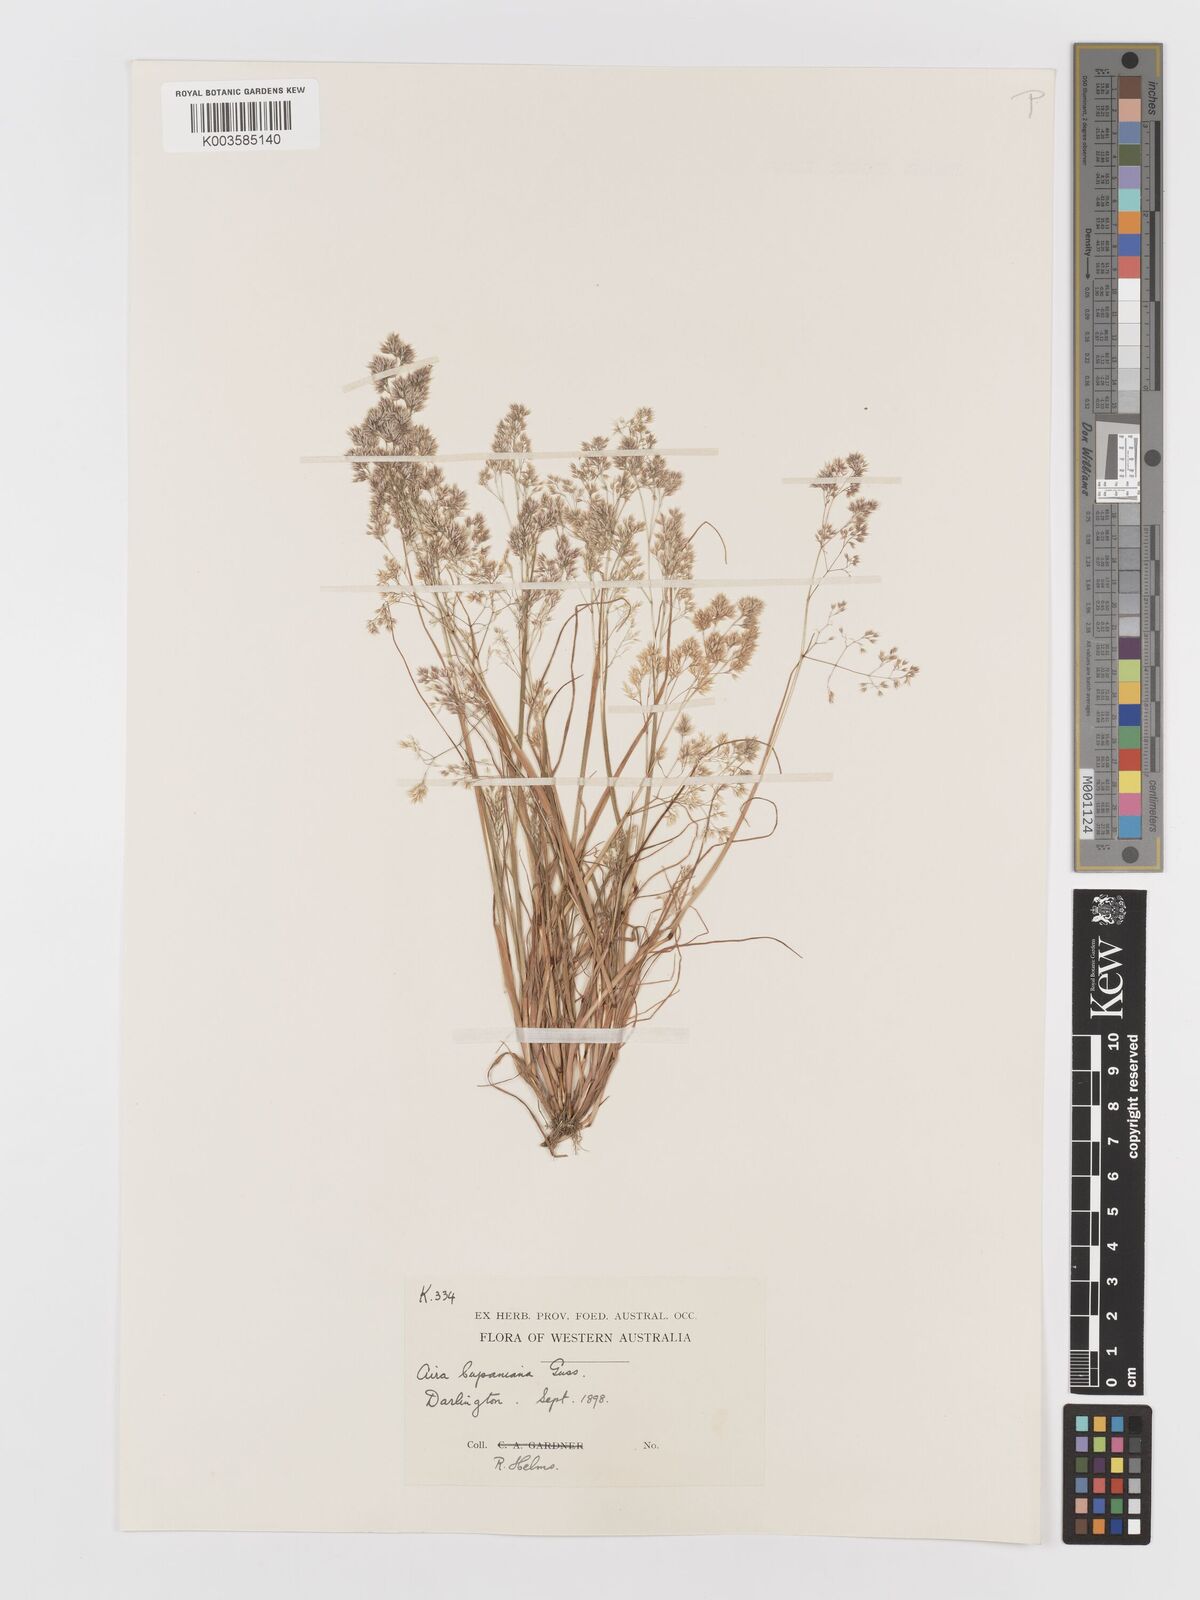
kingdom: Plantae
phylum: Tracheophyta
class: Liliopsida
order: Poales
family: Poaceae
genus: Aira
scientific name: Aira cupaniana
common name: Silver hairgrass
